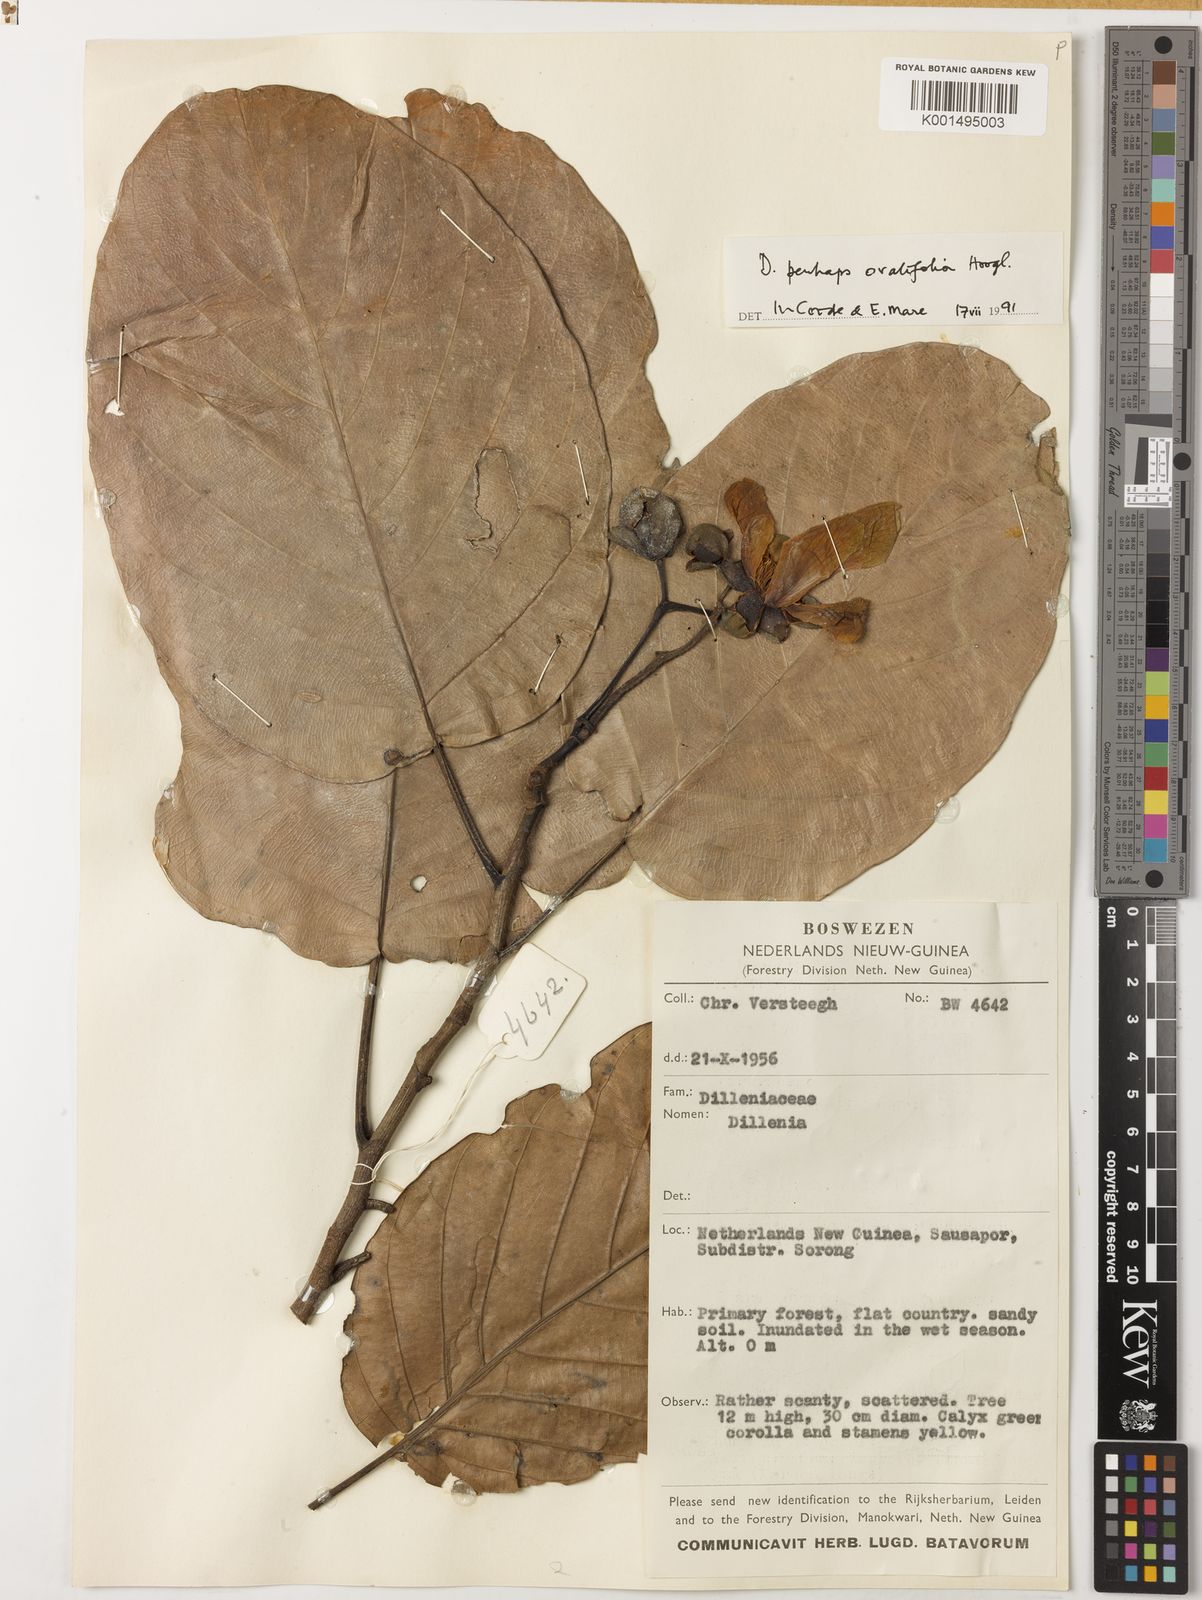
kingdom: Plantae
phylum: Tracheophyta
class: Magnoliopsida
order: Dilleniales
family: Dilleniaceae
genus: Dillenia
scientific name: Dillenia ovalifolia
